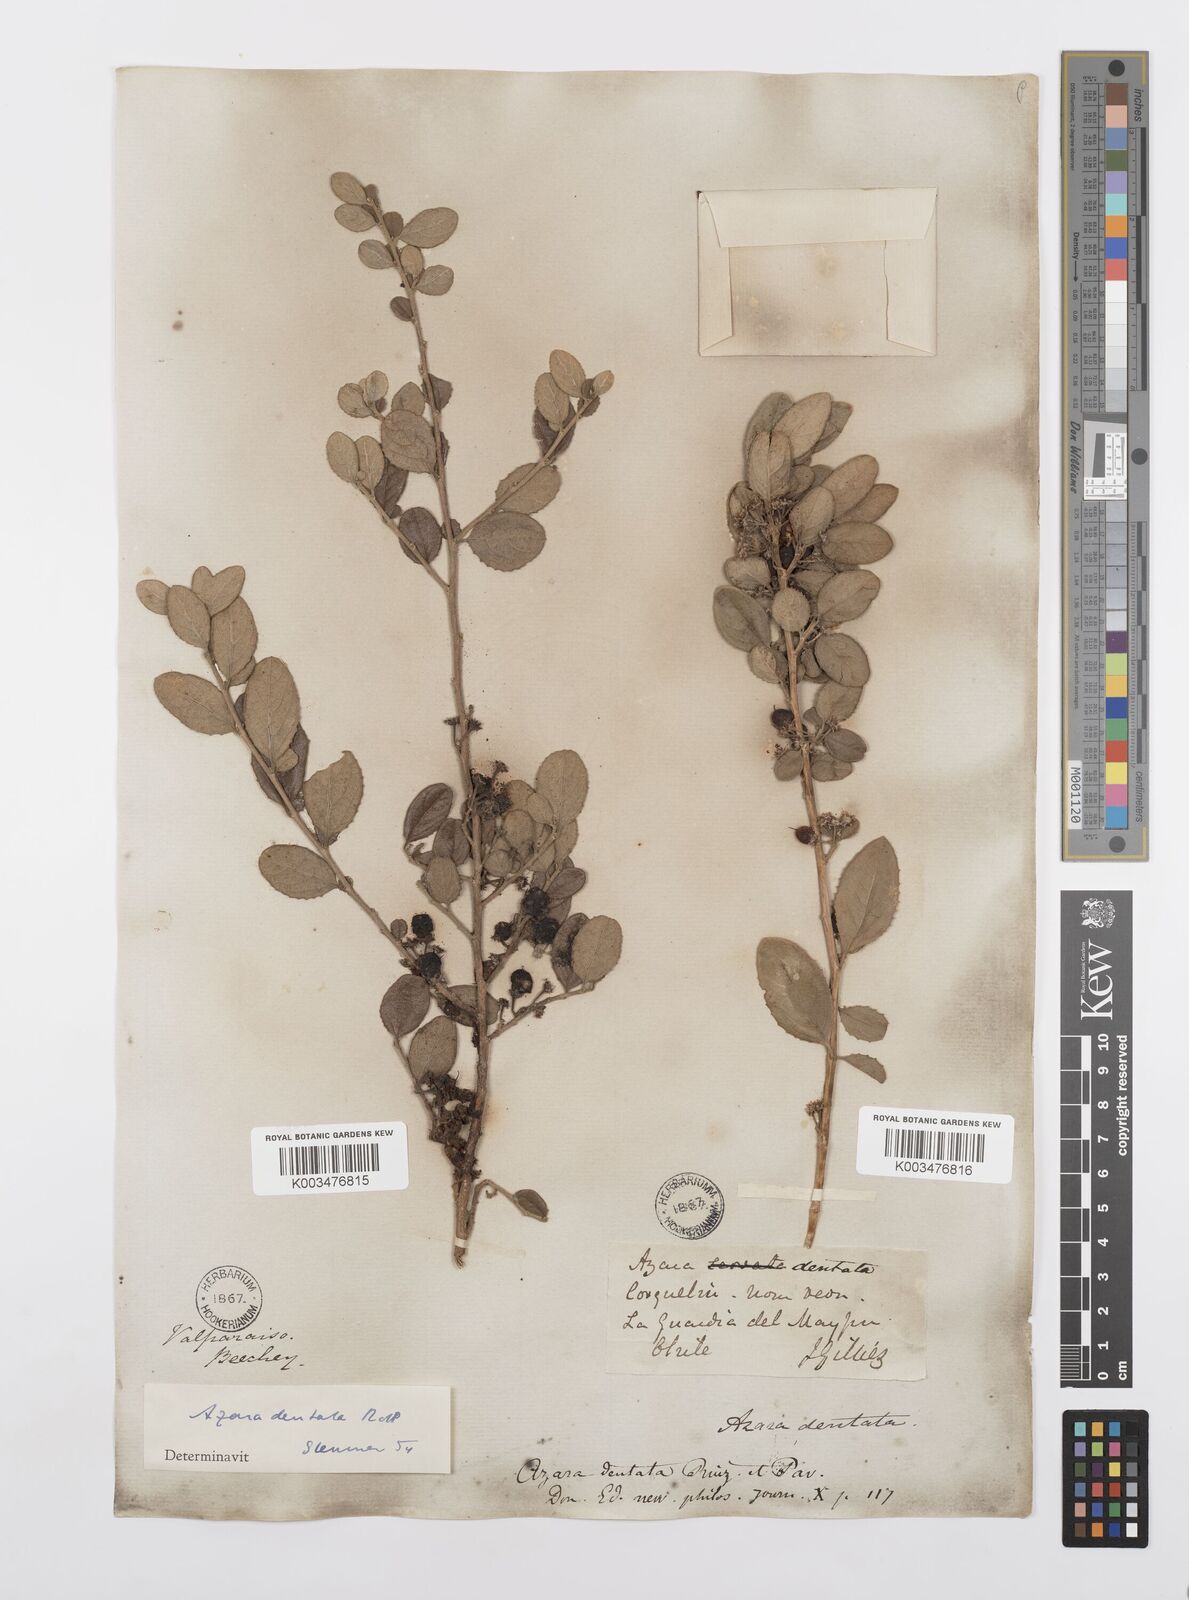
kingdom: Plantae
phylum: Tracheophyta
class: Magnoliopsida
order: Malpighiales
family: Salicaceae
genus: Azara
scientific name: Azara dentata
